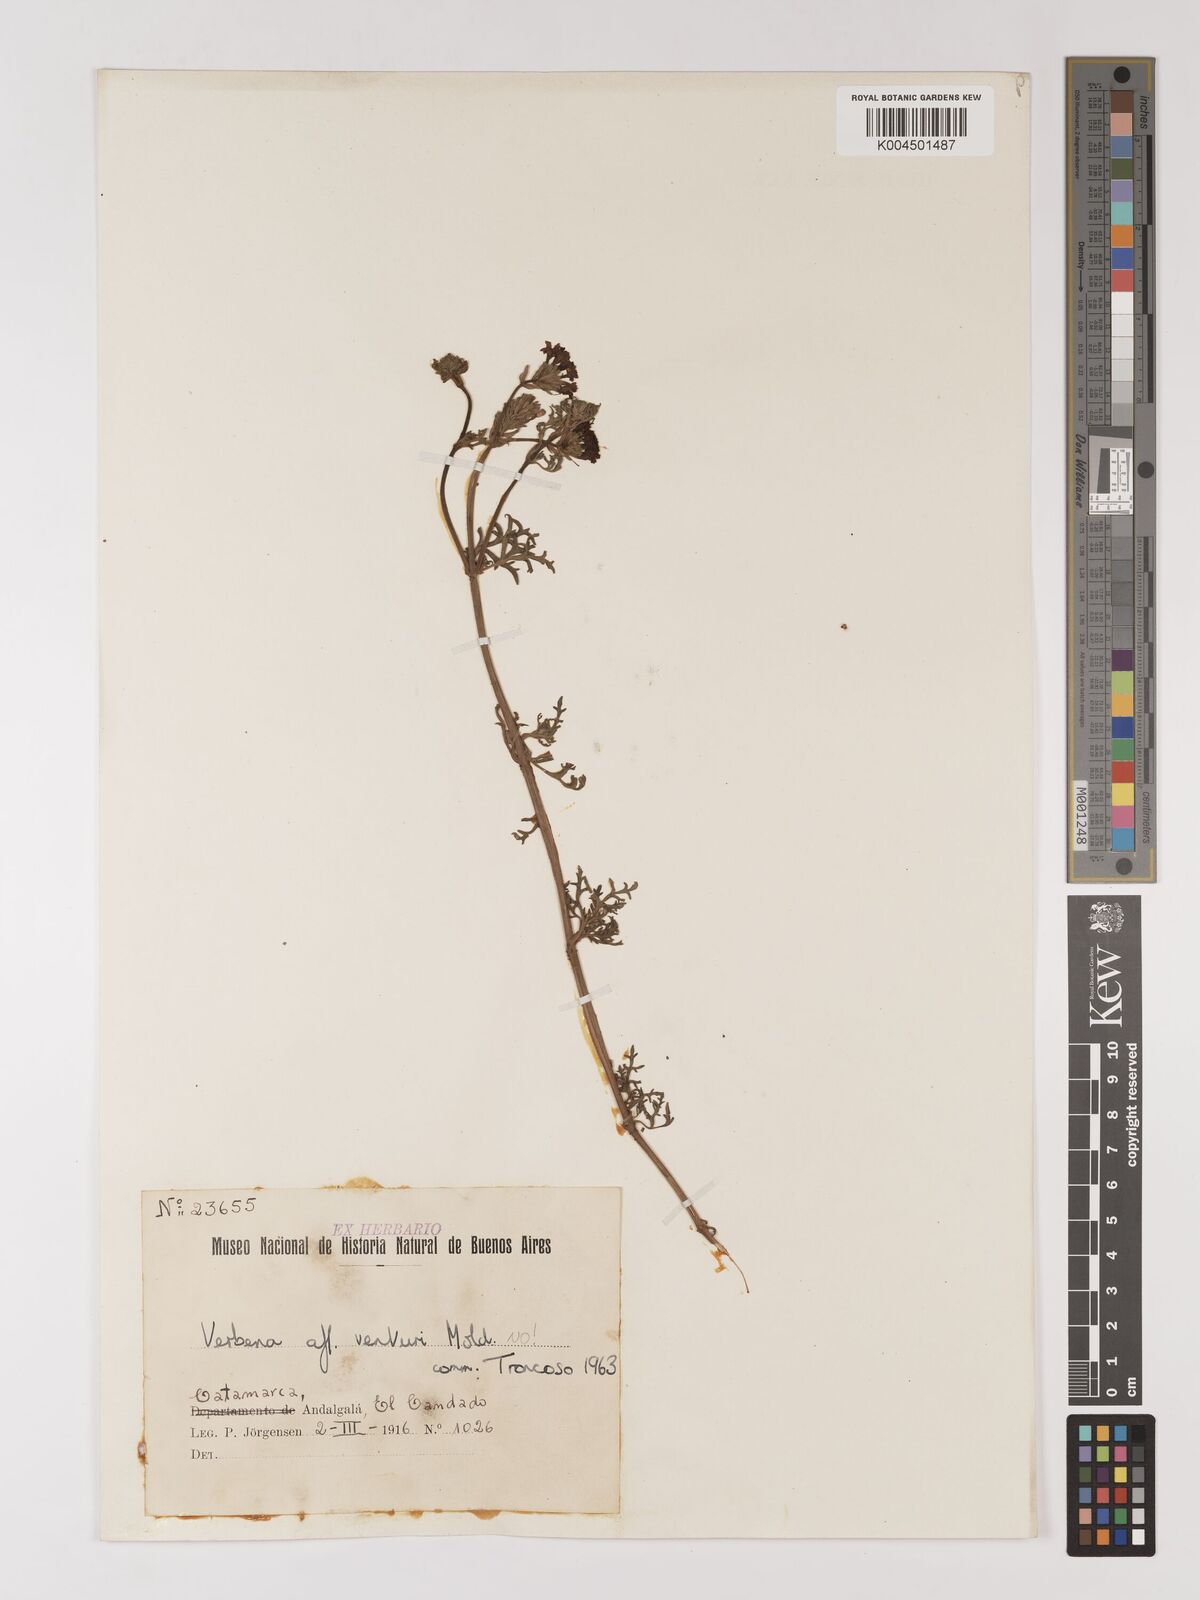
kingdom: Plantae
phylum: Tracheophyta
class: Magnoliopsida
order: Lamiales
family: Verbenaceae
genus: Verbena
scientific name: Verbena venturii
